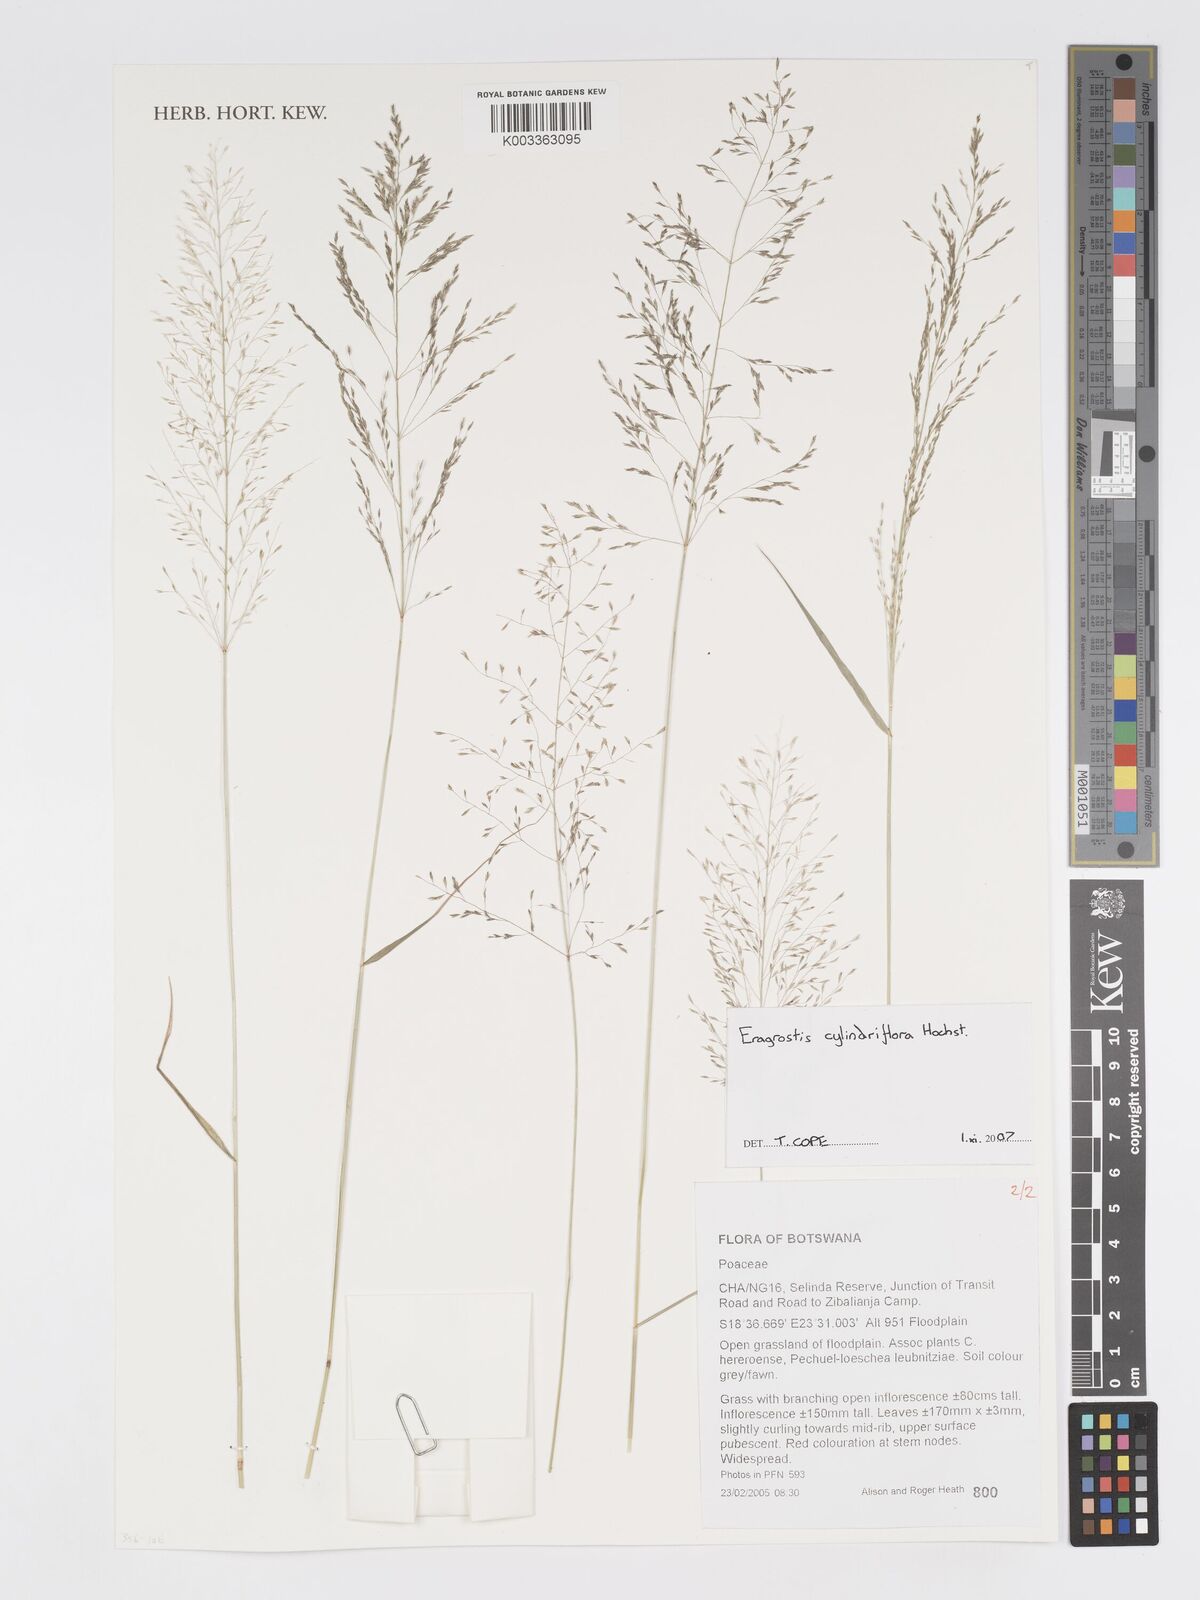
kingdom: Plantae
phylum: Tracheophyta
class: Liliopsida
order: Poales
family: Poaceae
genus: Eragrostis
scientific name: Eragrostis cylindriflora
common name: Cylinderflower lovegrass
